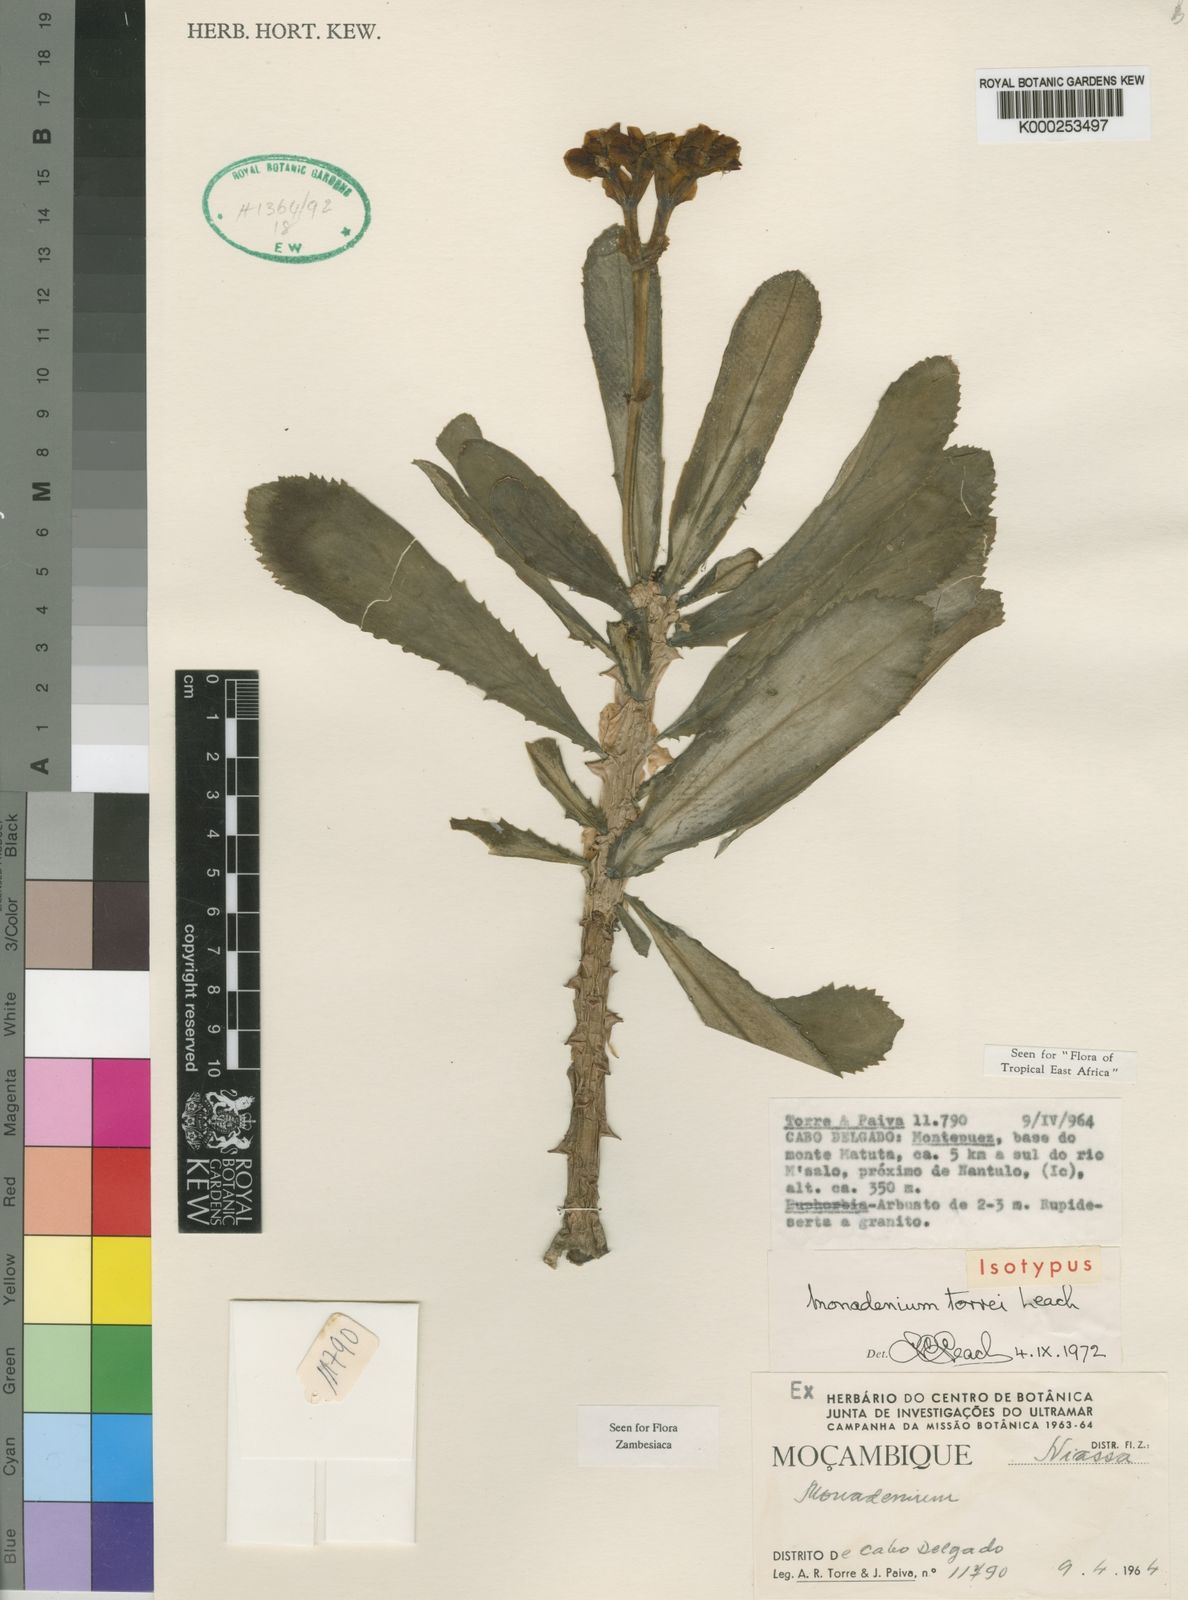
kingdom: Plantae
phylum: Tracheophyta
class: Magnoliopsida
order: Malpighiales
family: Euphorbiaceae
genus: Euphorbia
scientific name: Euphorbia torrei
